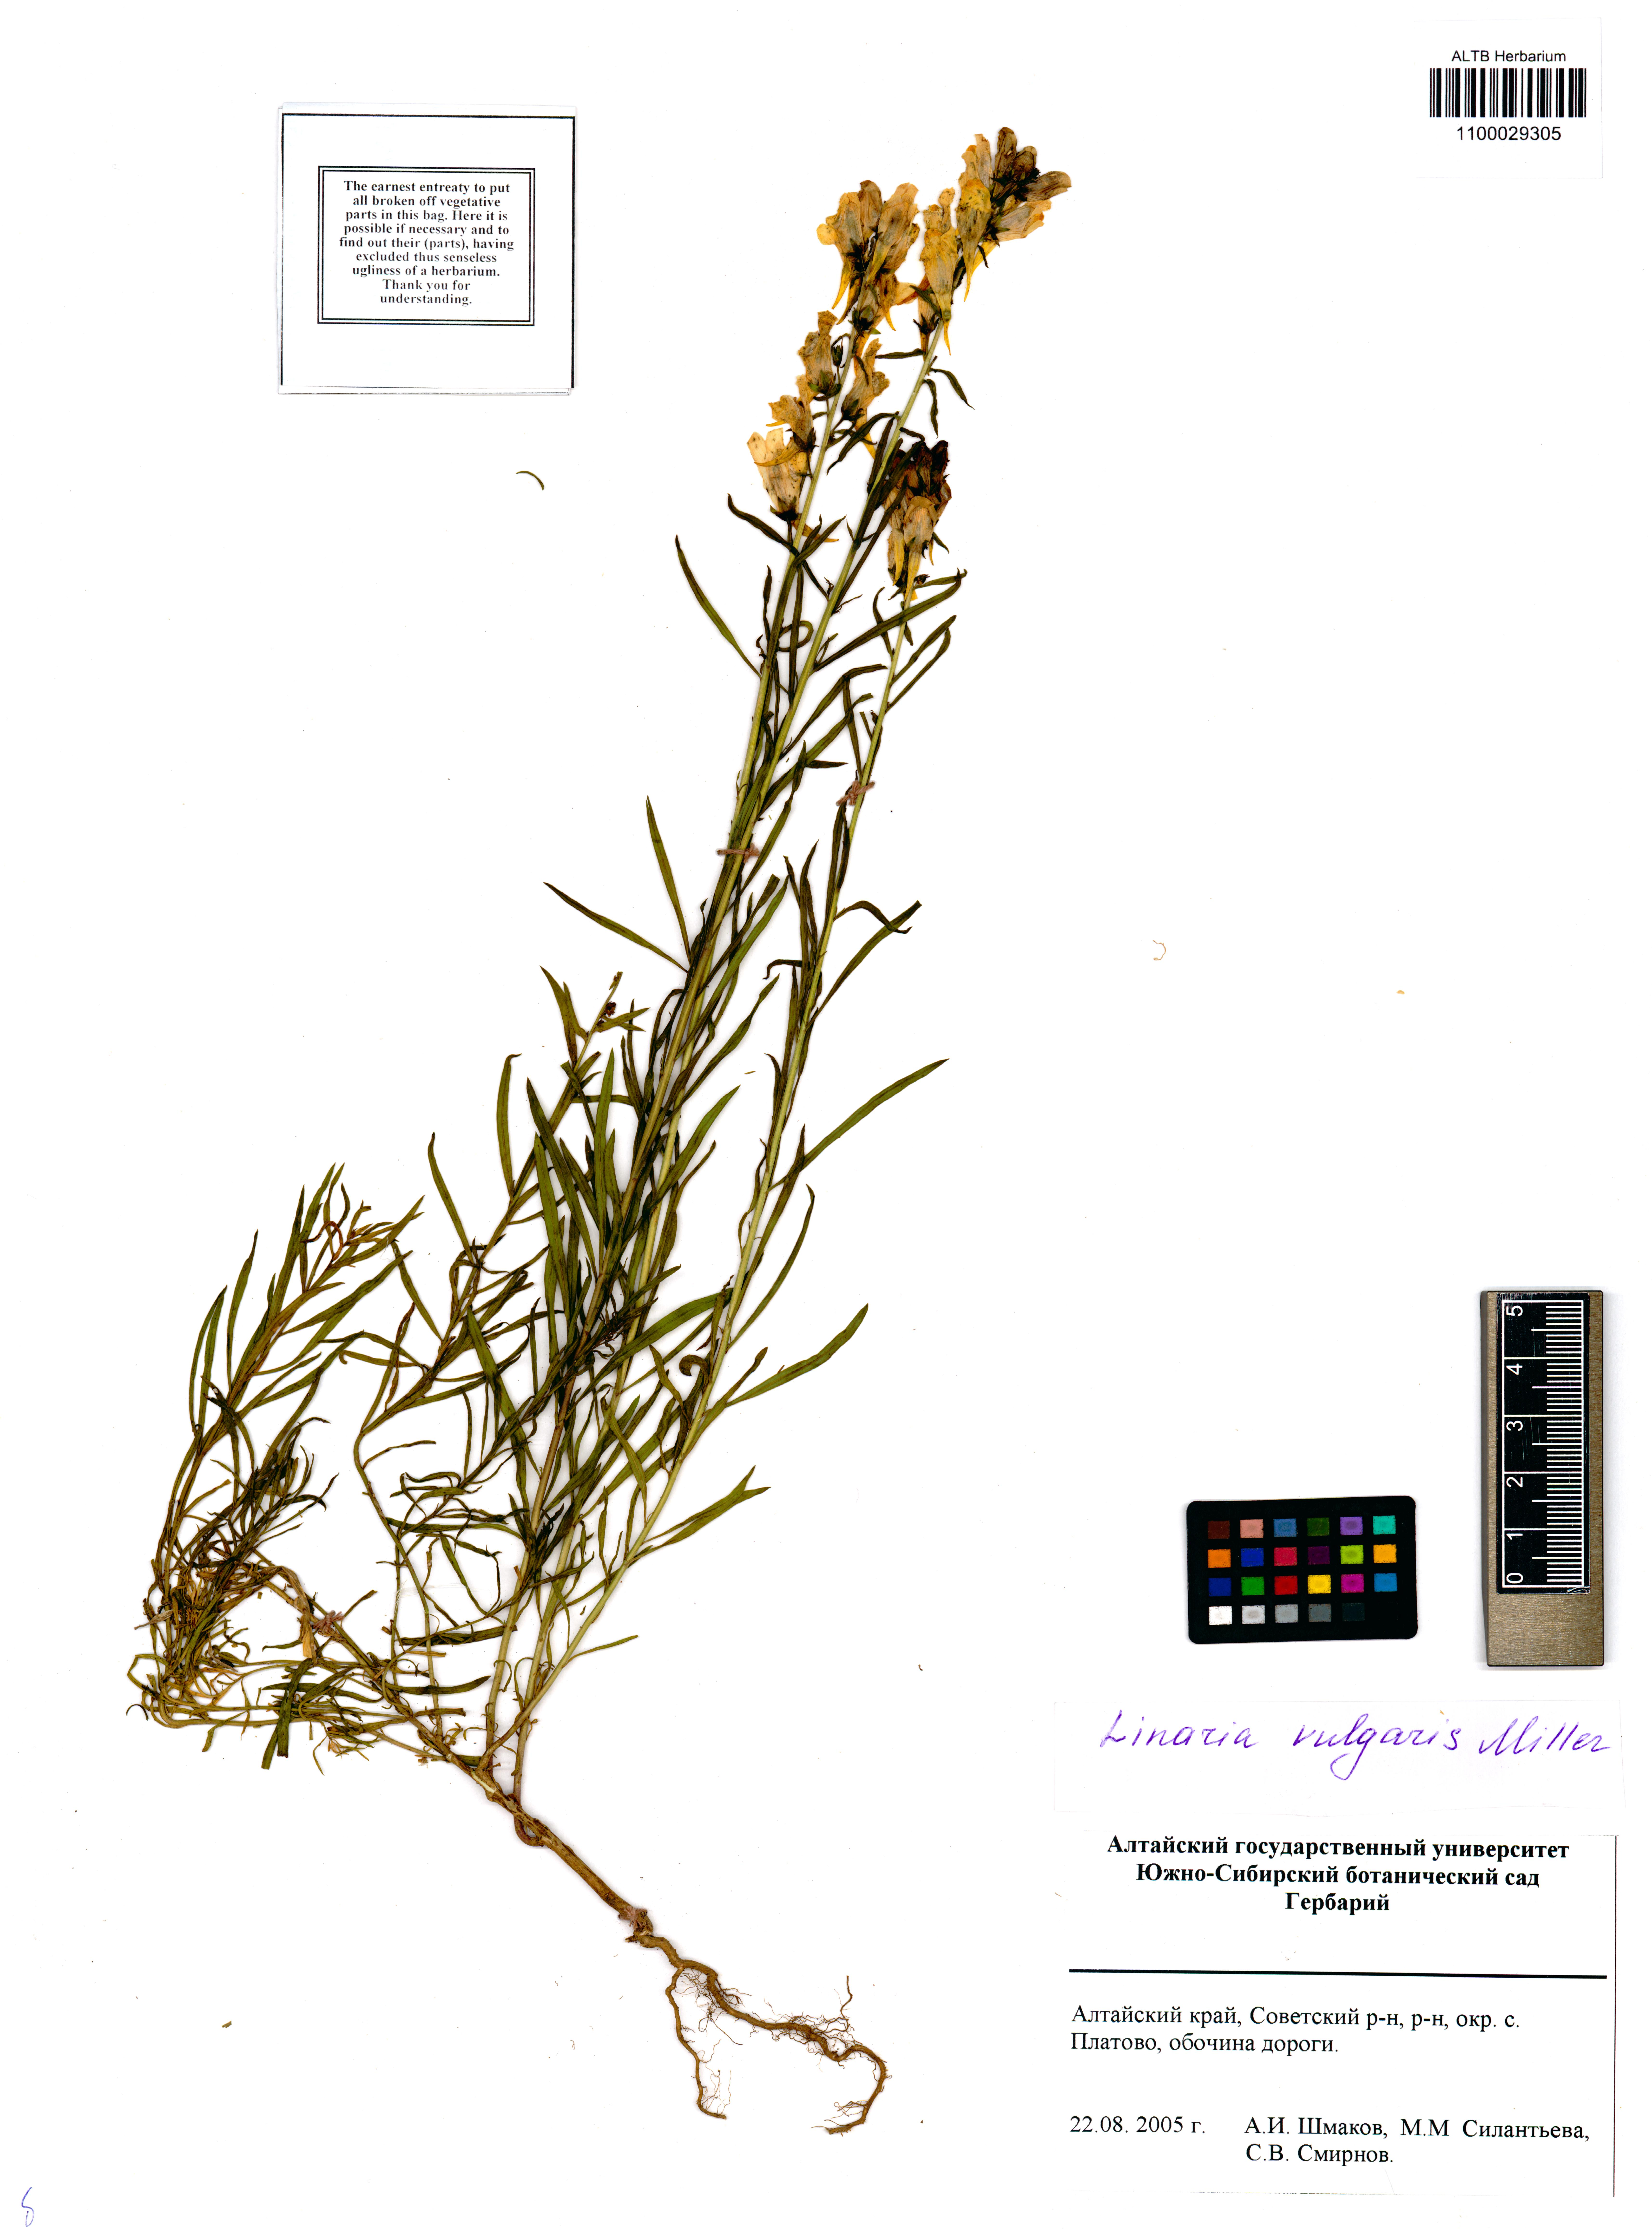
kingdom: Plantae
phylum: Tracheophyta
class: Magnoliopsida
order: Lamiales
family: Plantaginaceae
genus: Linaria
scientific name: Linaria vulgaris
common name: Butter and eggs
